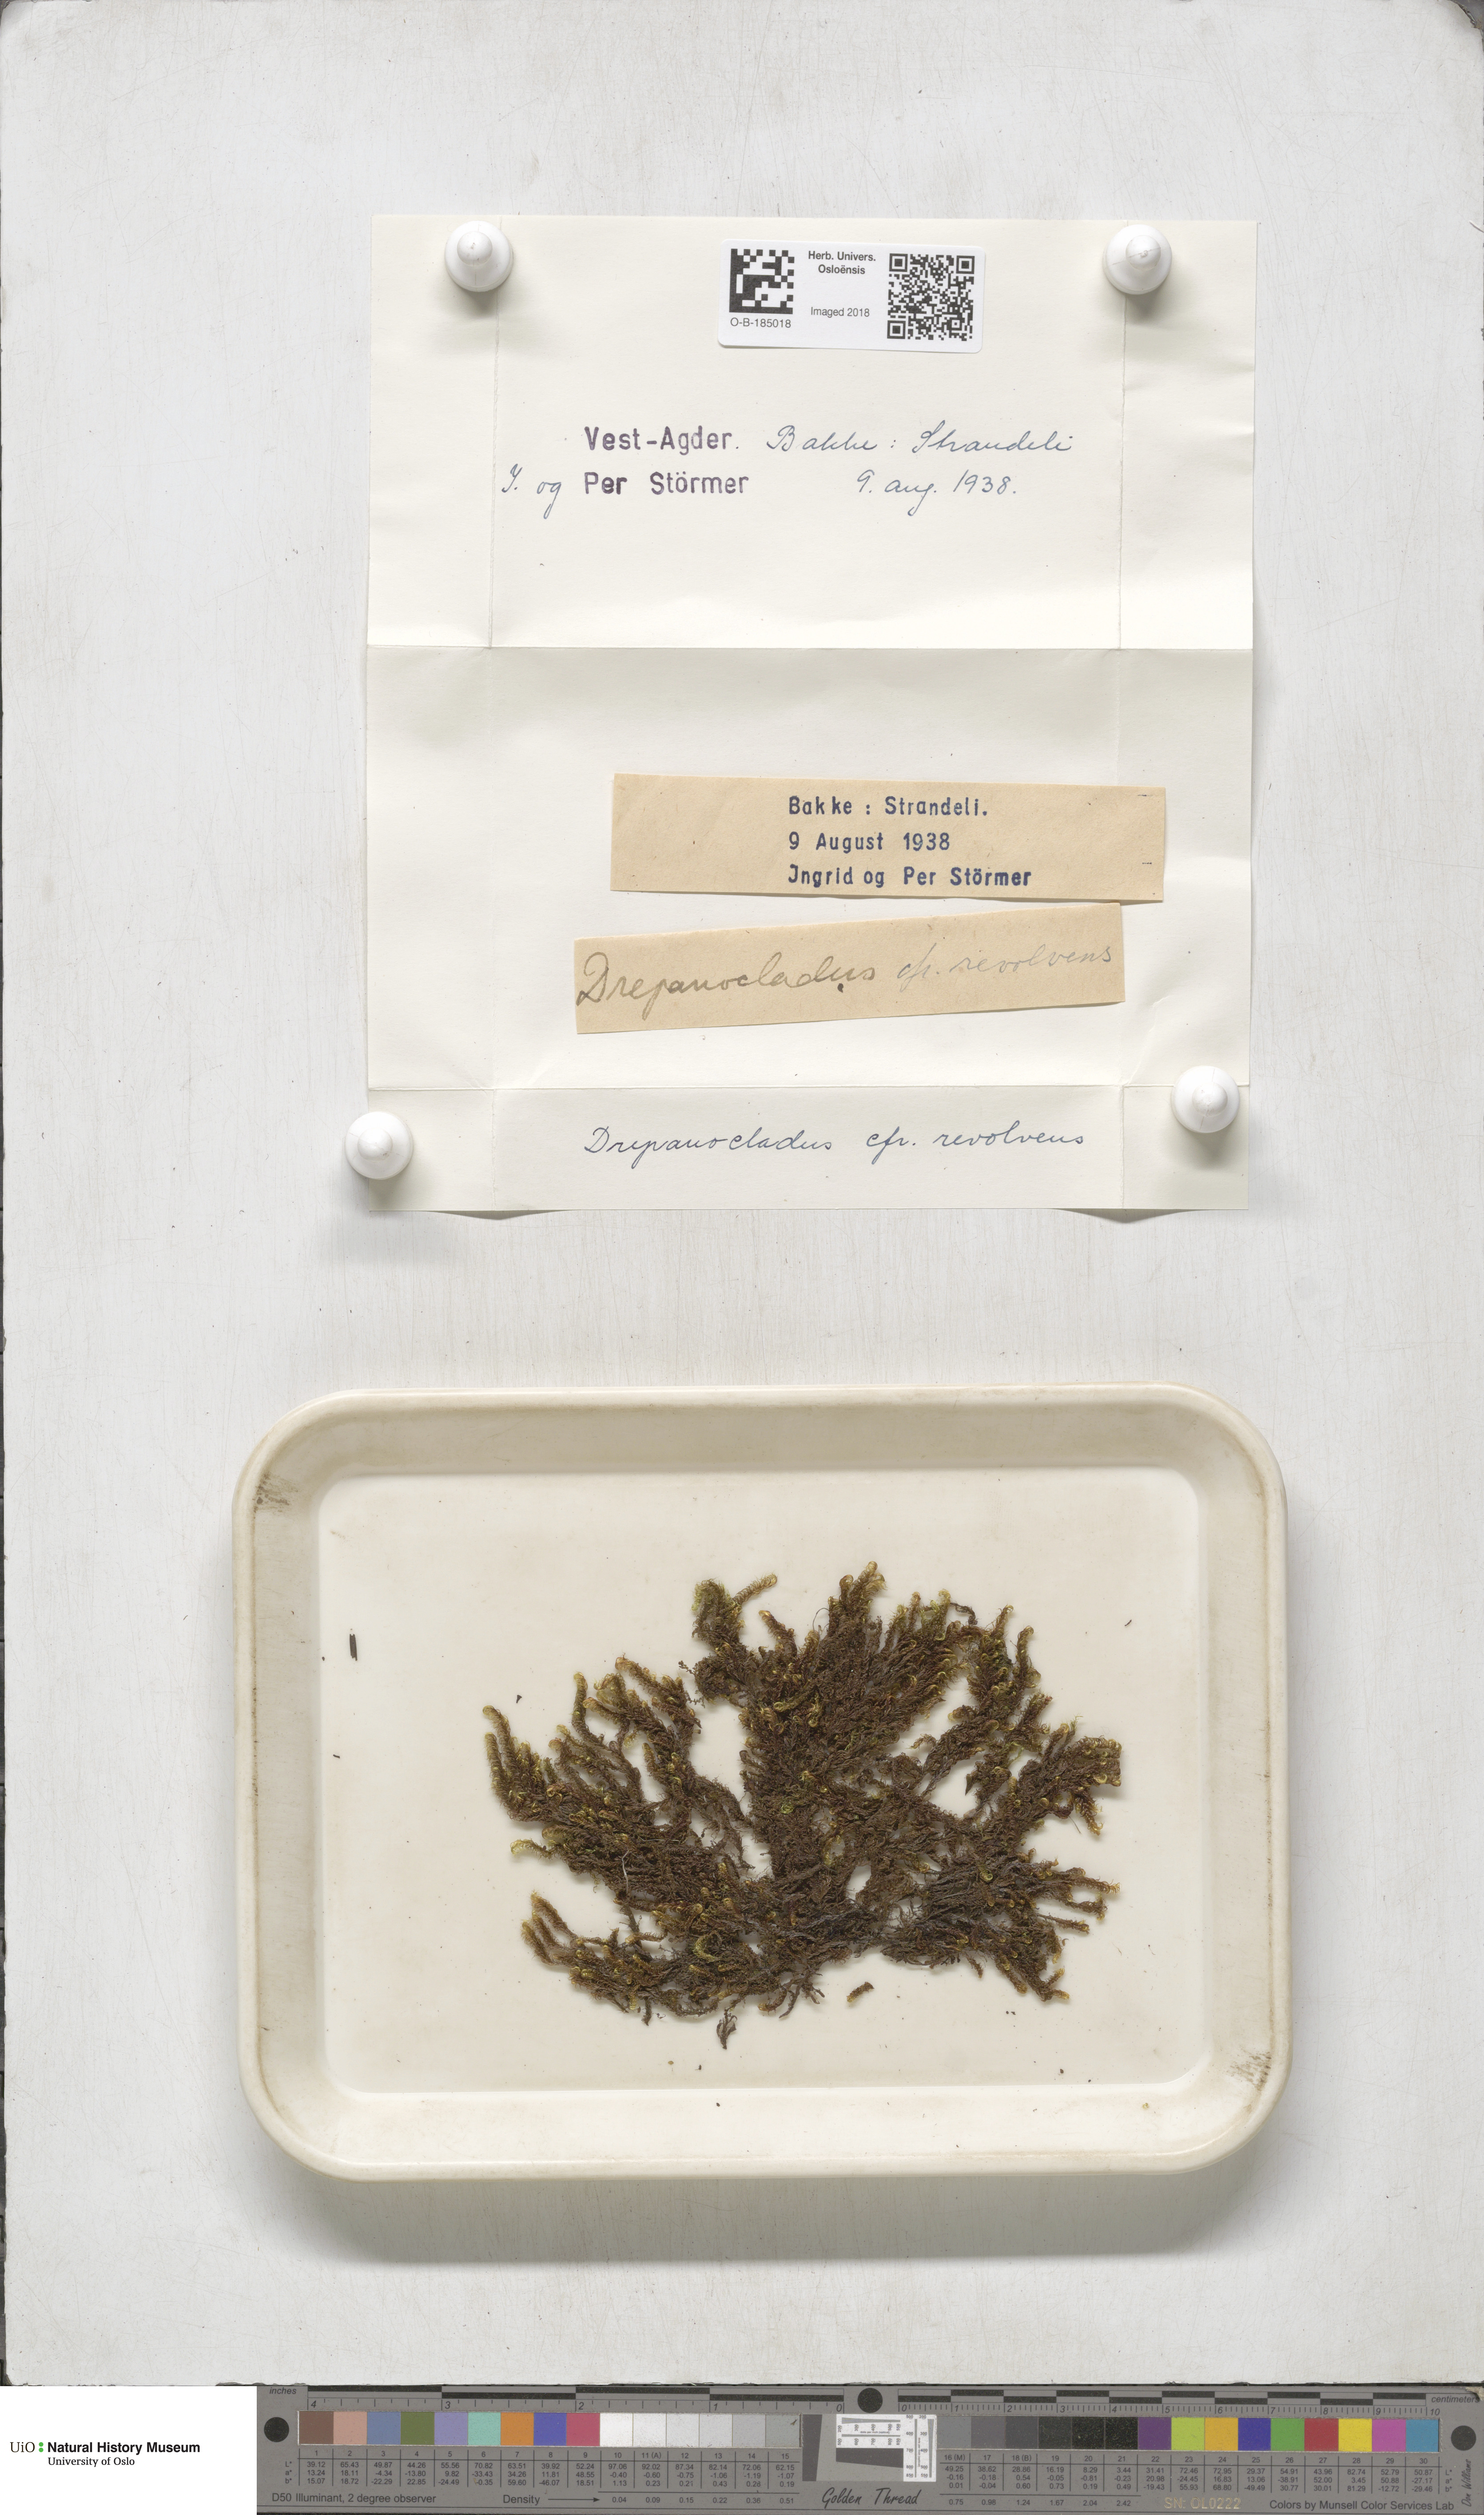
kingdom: Plantae
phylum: Bryophyta
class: Bryopsida
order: Hypnales
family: Scorpidiaceae
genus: Scorpidium
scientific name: Scorpidium revolvens
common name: Rusty hook moss
